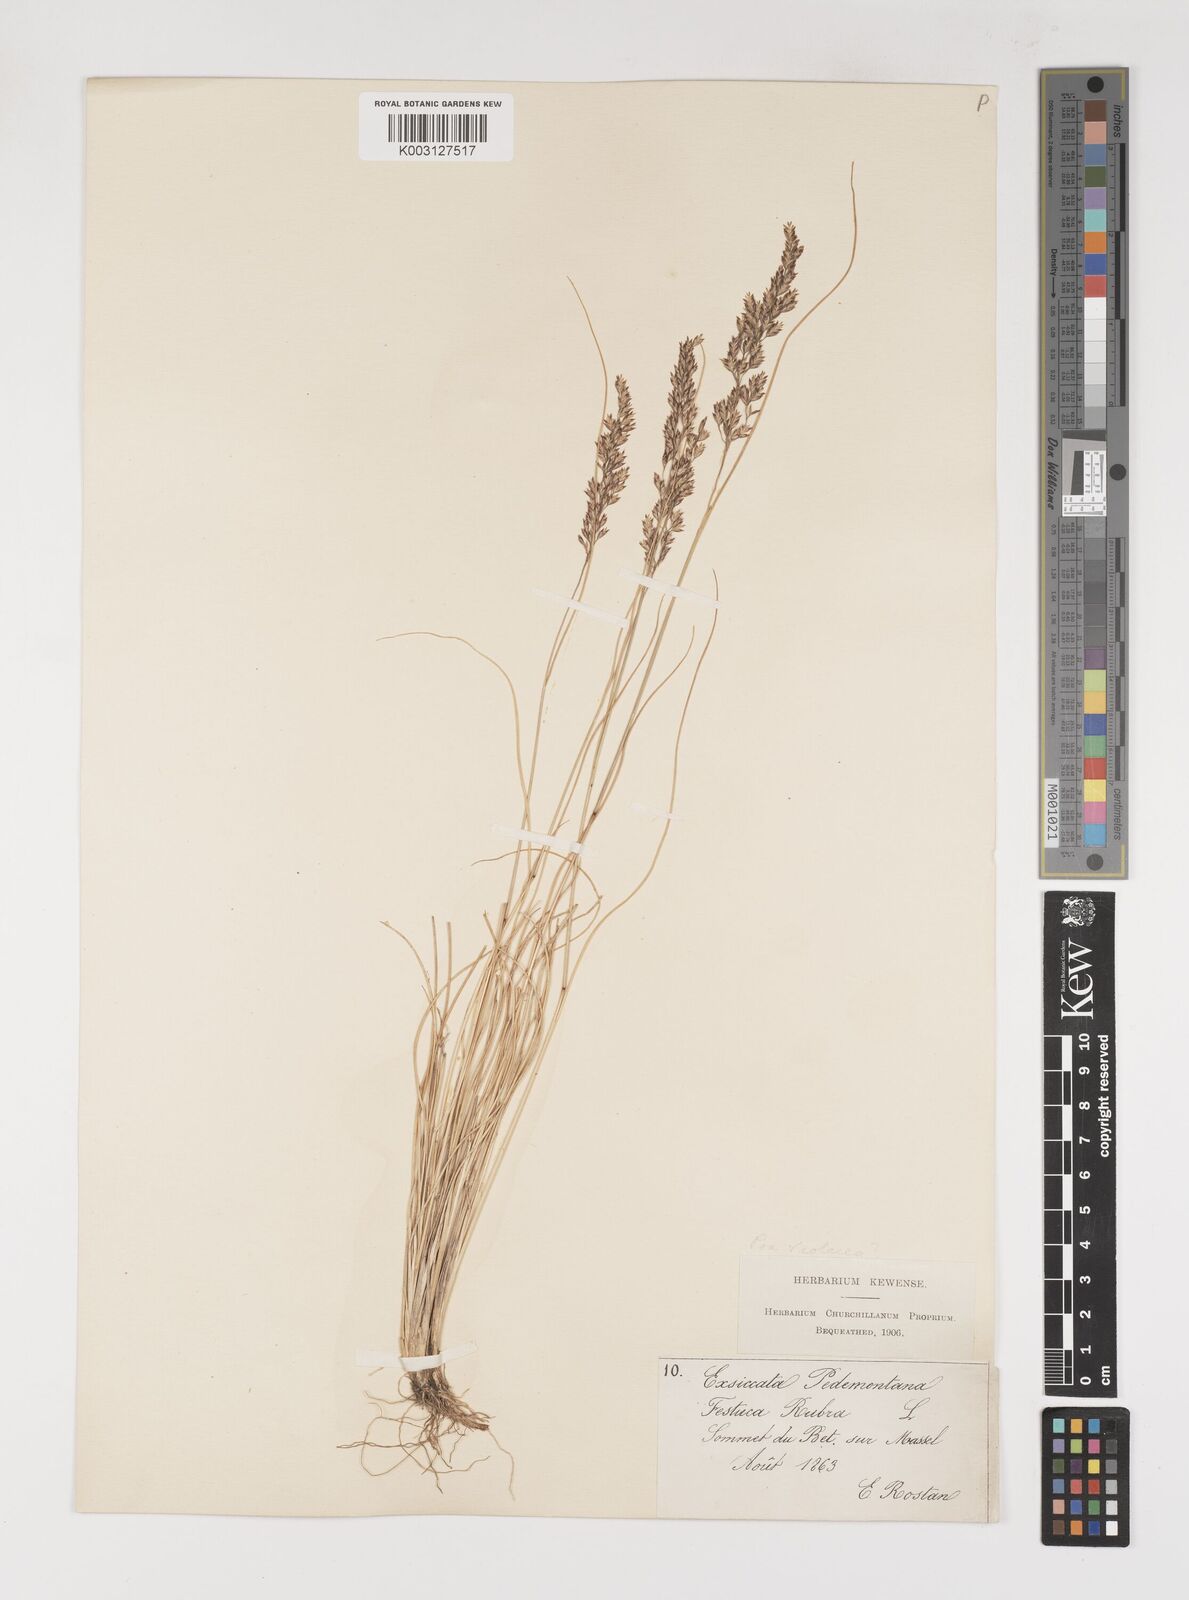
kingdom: Plantae
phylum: Tracheophyta
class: Liliopsida
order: Poales
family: Poaceae
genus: Bellardiochloa
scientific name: Bellardiochloa variegata
